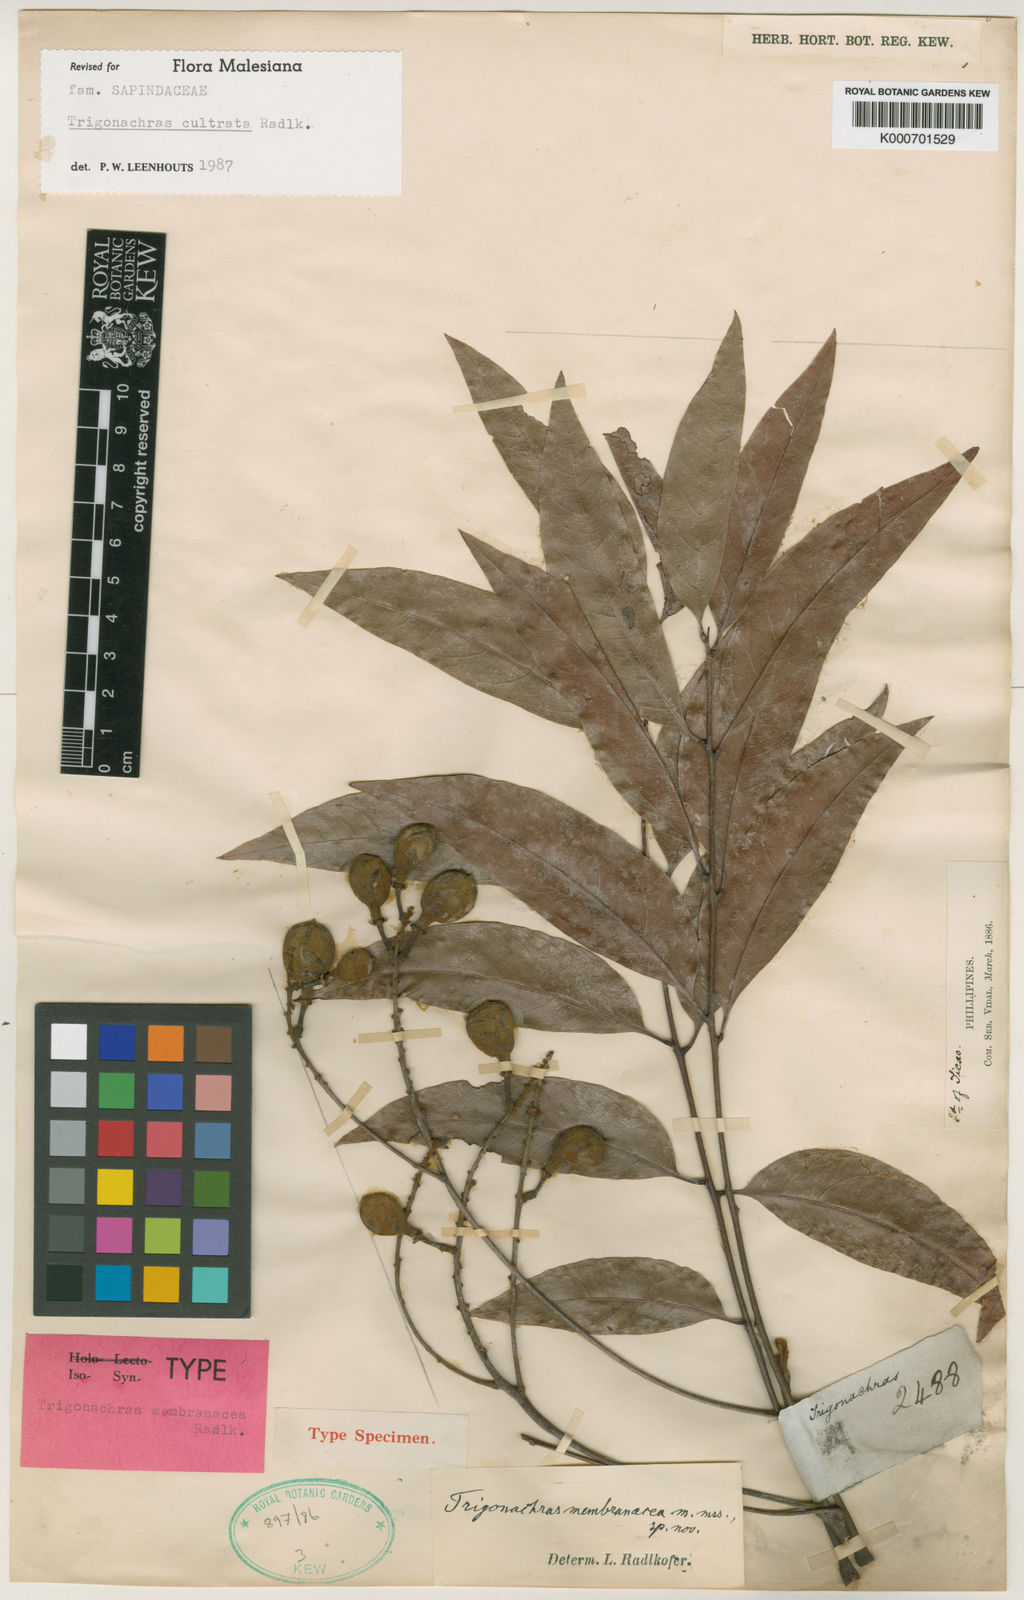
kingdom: Plantae
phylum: Tracheophyta
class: Magnoliopsida
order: Sapindales
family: Sapindaceae
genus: Trigonachras
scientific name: Trigonachras cultrata
